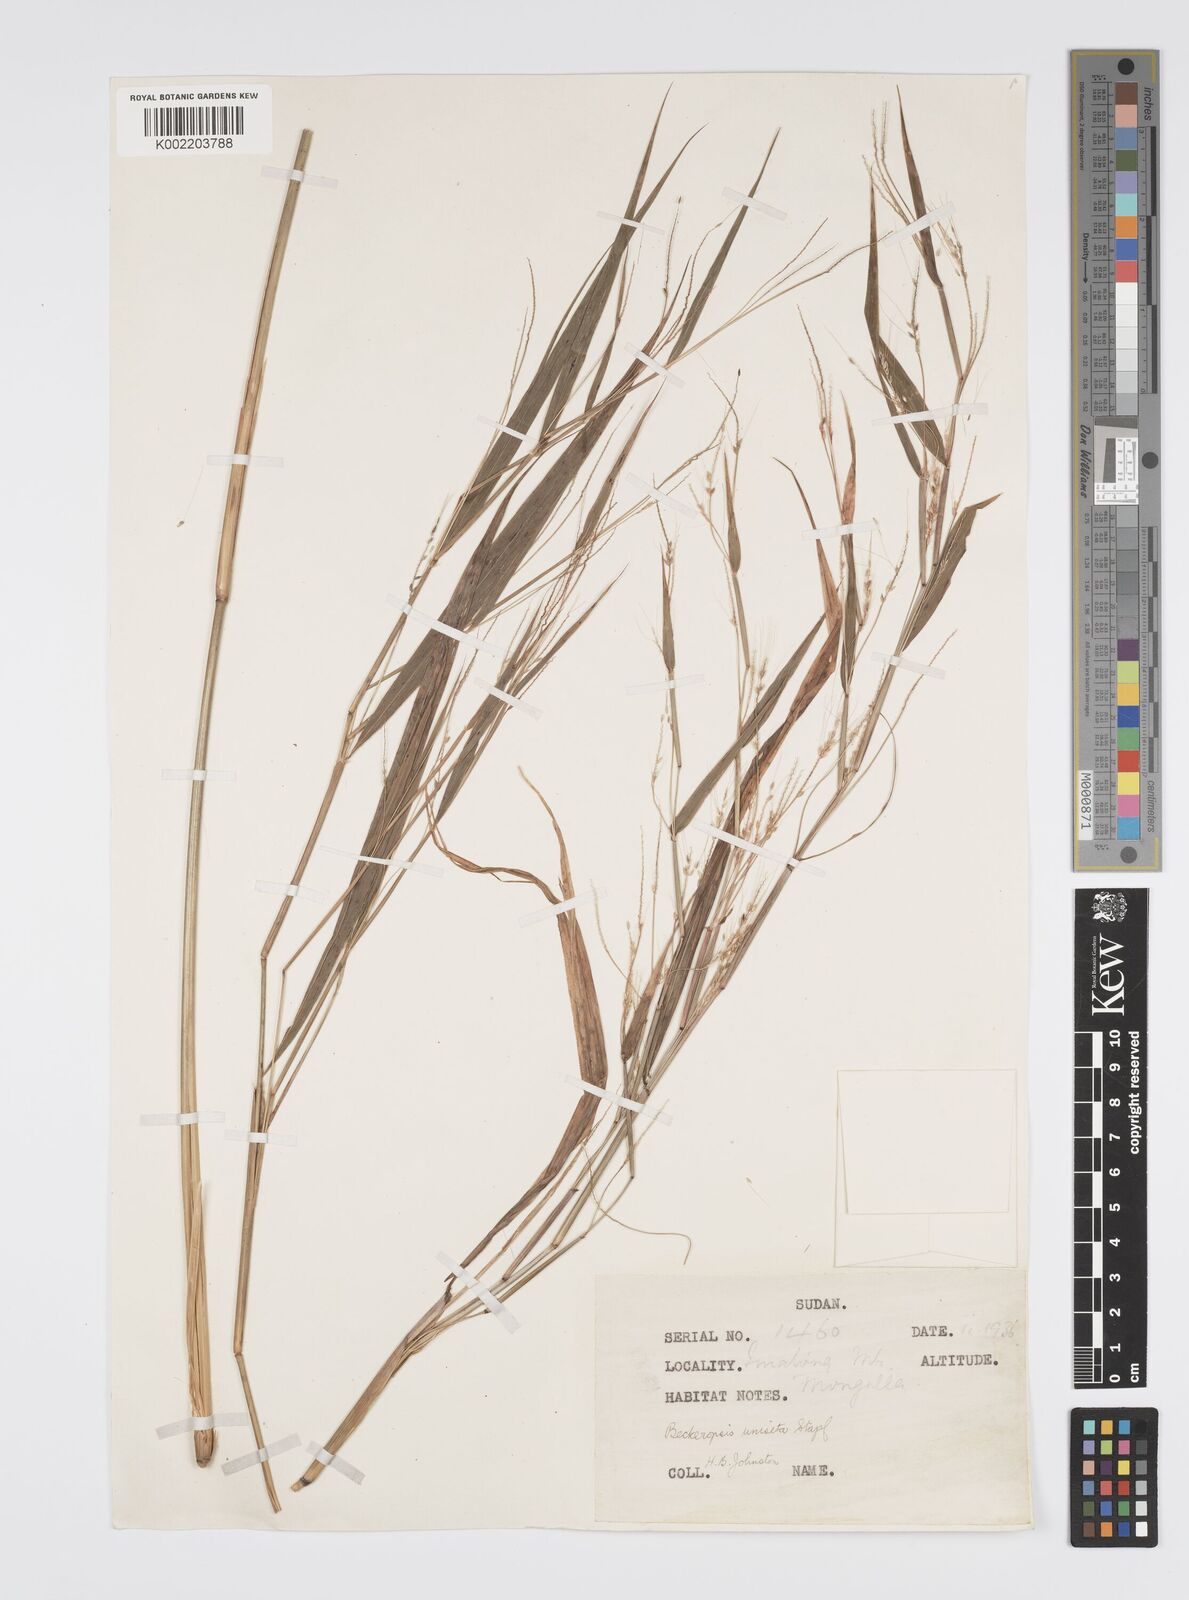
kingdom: Plantae
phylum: Tracheophyta
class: Liliopsida
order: Poales
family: Poaceae
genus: Cenchrus
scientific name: Cenchrus unisetus
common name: Natal grass
